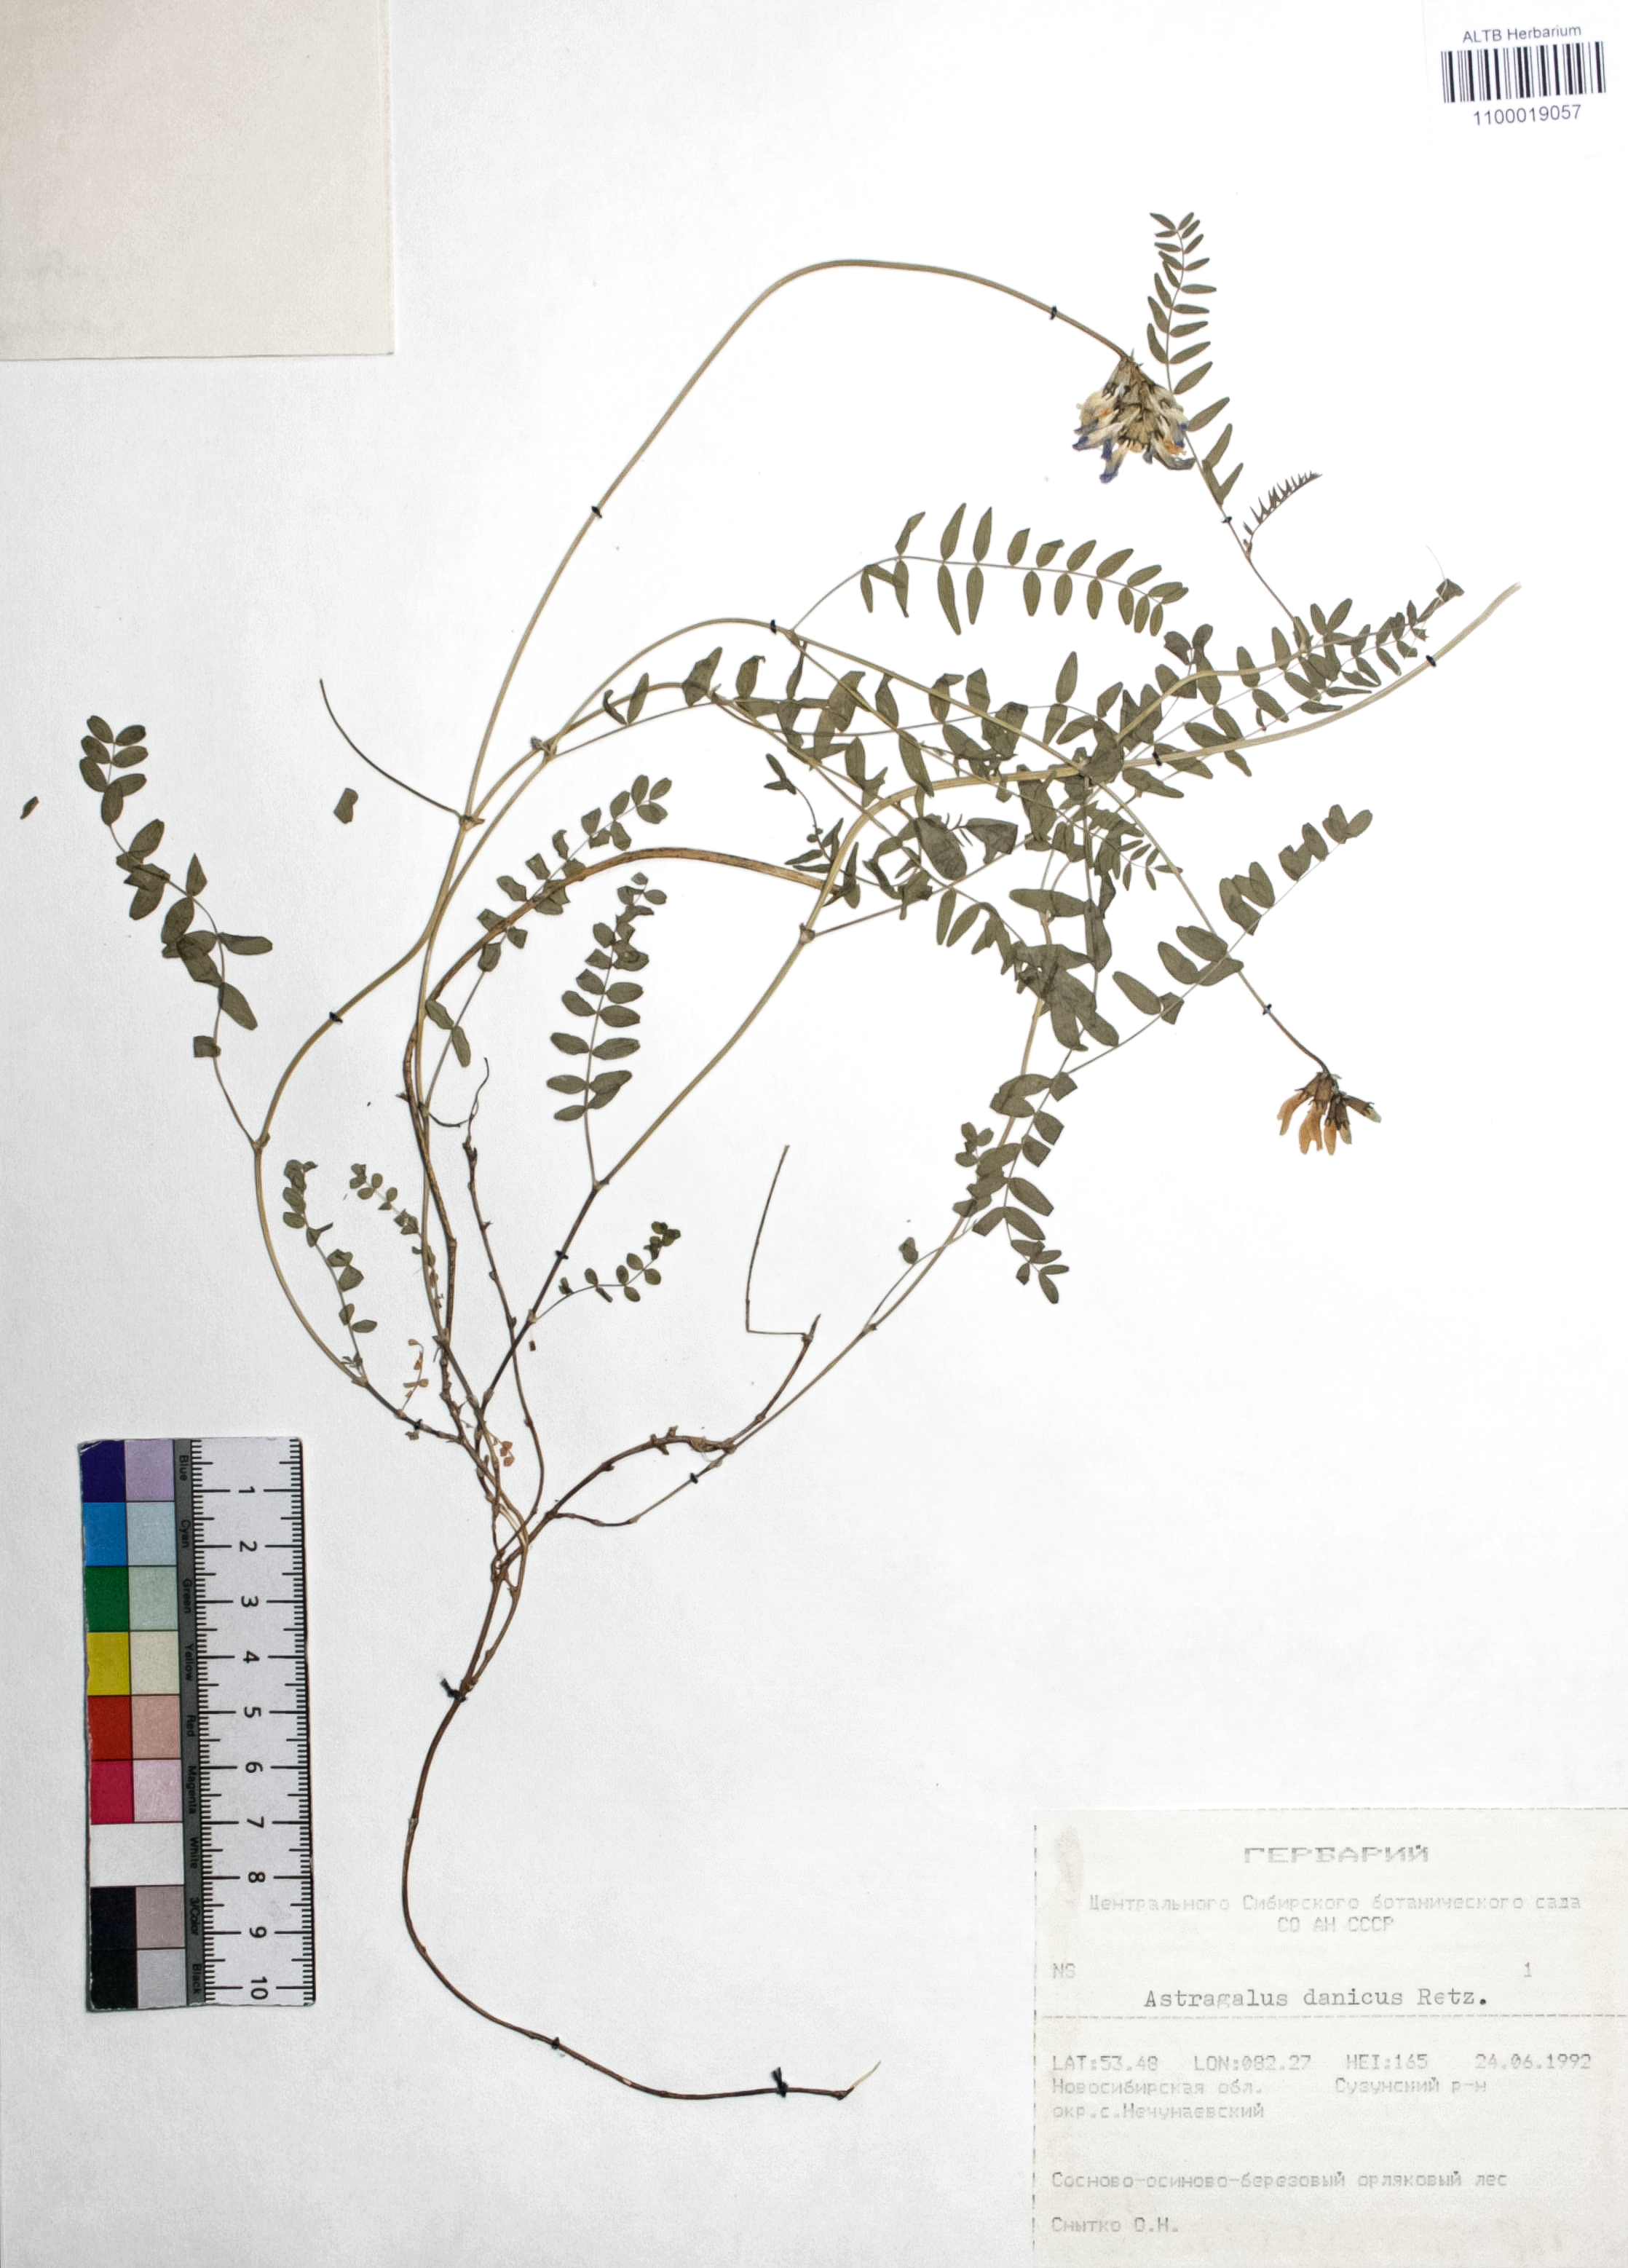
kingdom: Plantae
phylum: Tracheophyta
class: Magnoliopsida
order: Fabales
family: Fabaceae
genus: Astragalus
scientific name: Astragalus danicus
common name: Purple milk-vetch
